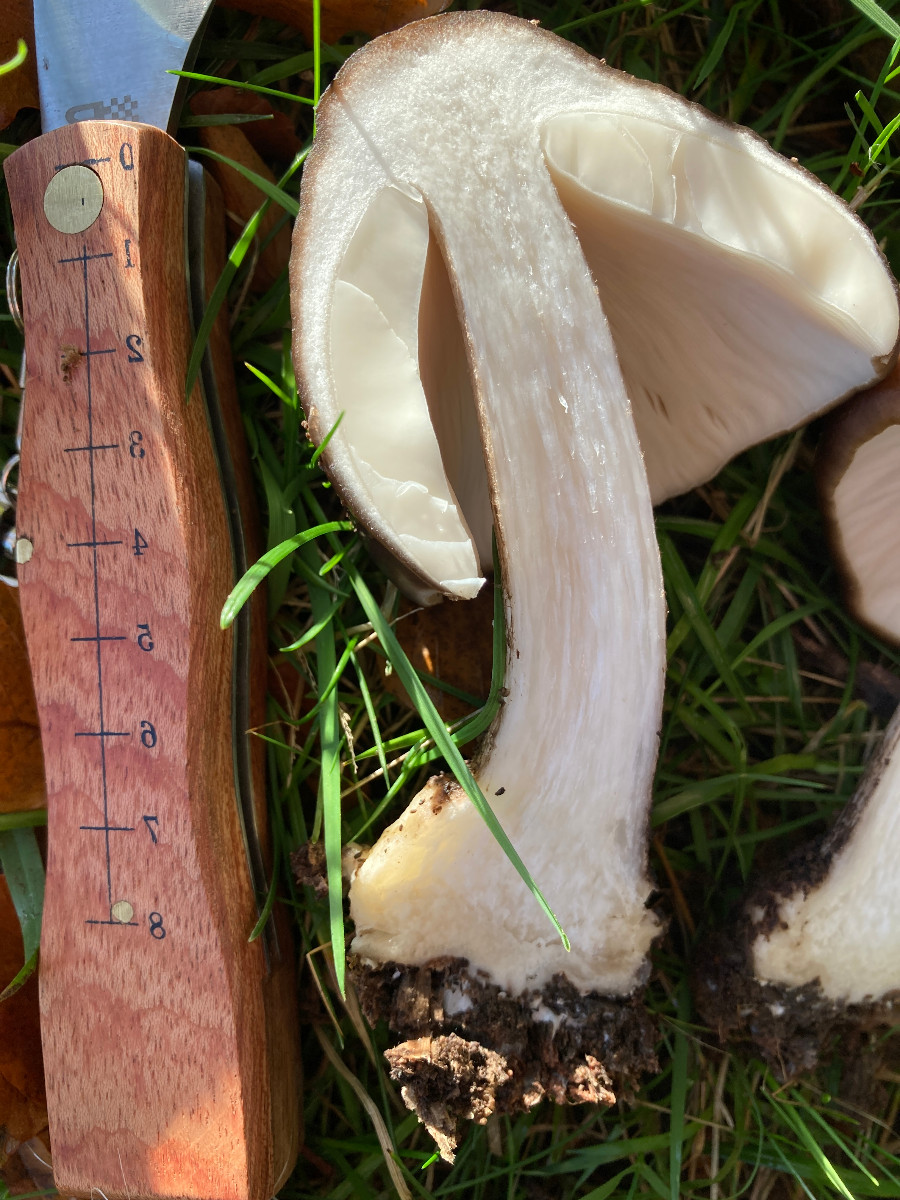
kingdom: Fungi
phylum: Basidiomycota
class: Agaricomycetes
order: Agaricales
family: Pluteaceae
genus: Pluteus
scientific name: Pluteus cervinus
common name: sodfarvet skærmhat
